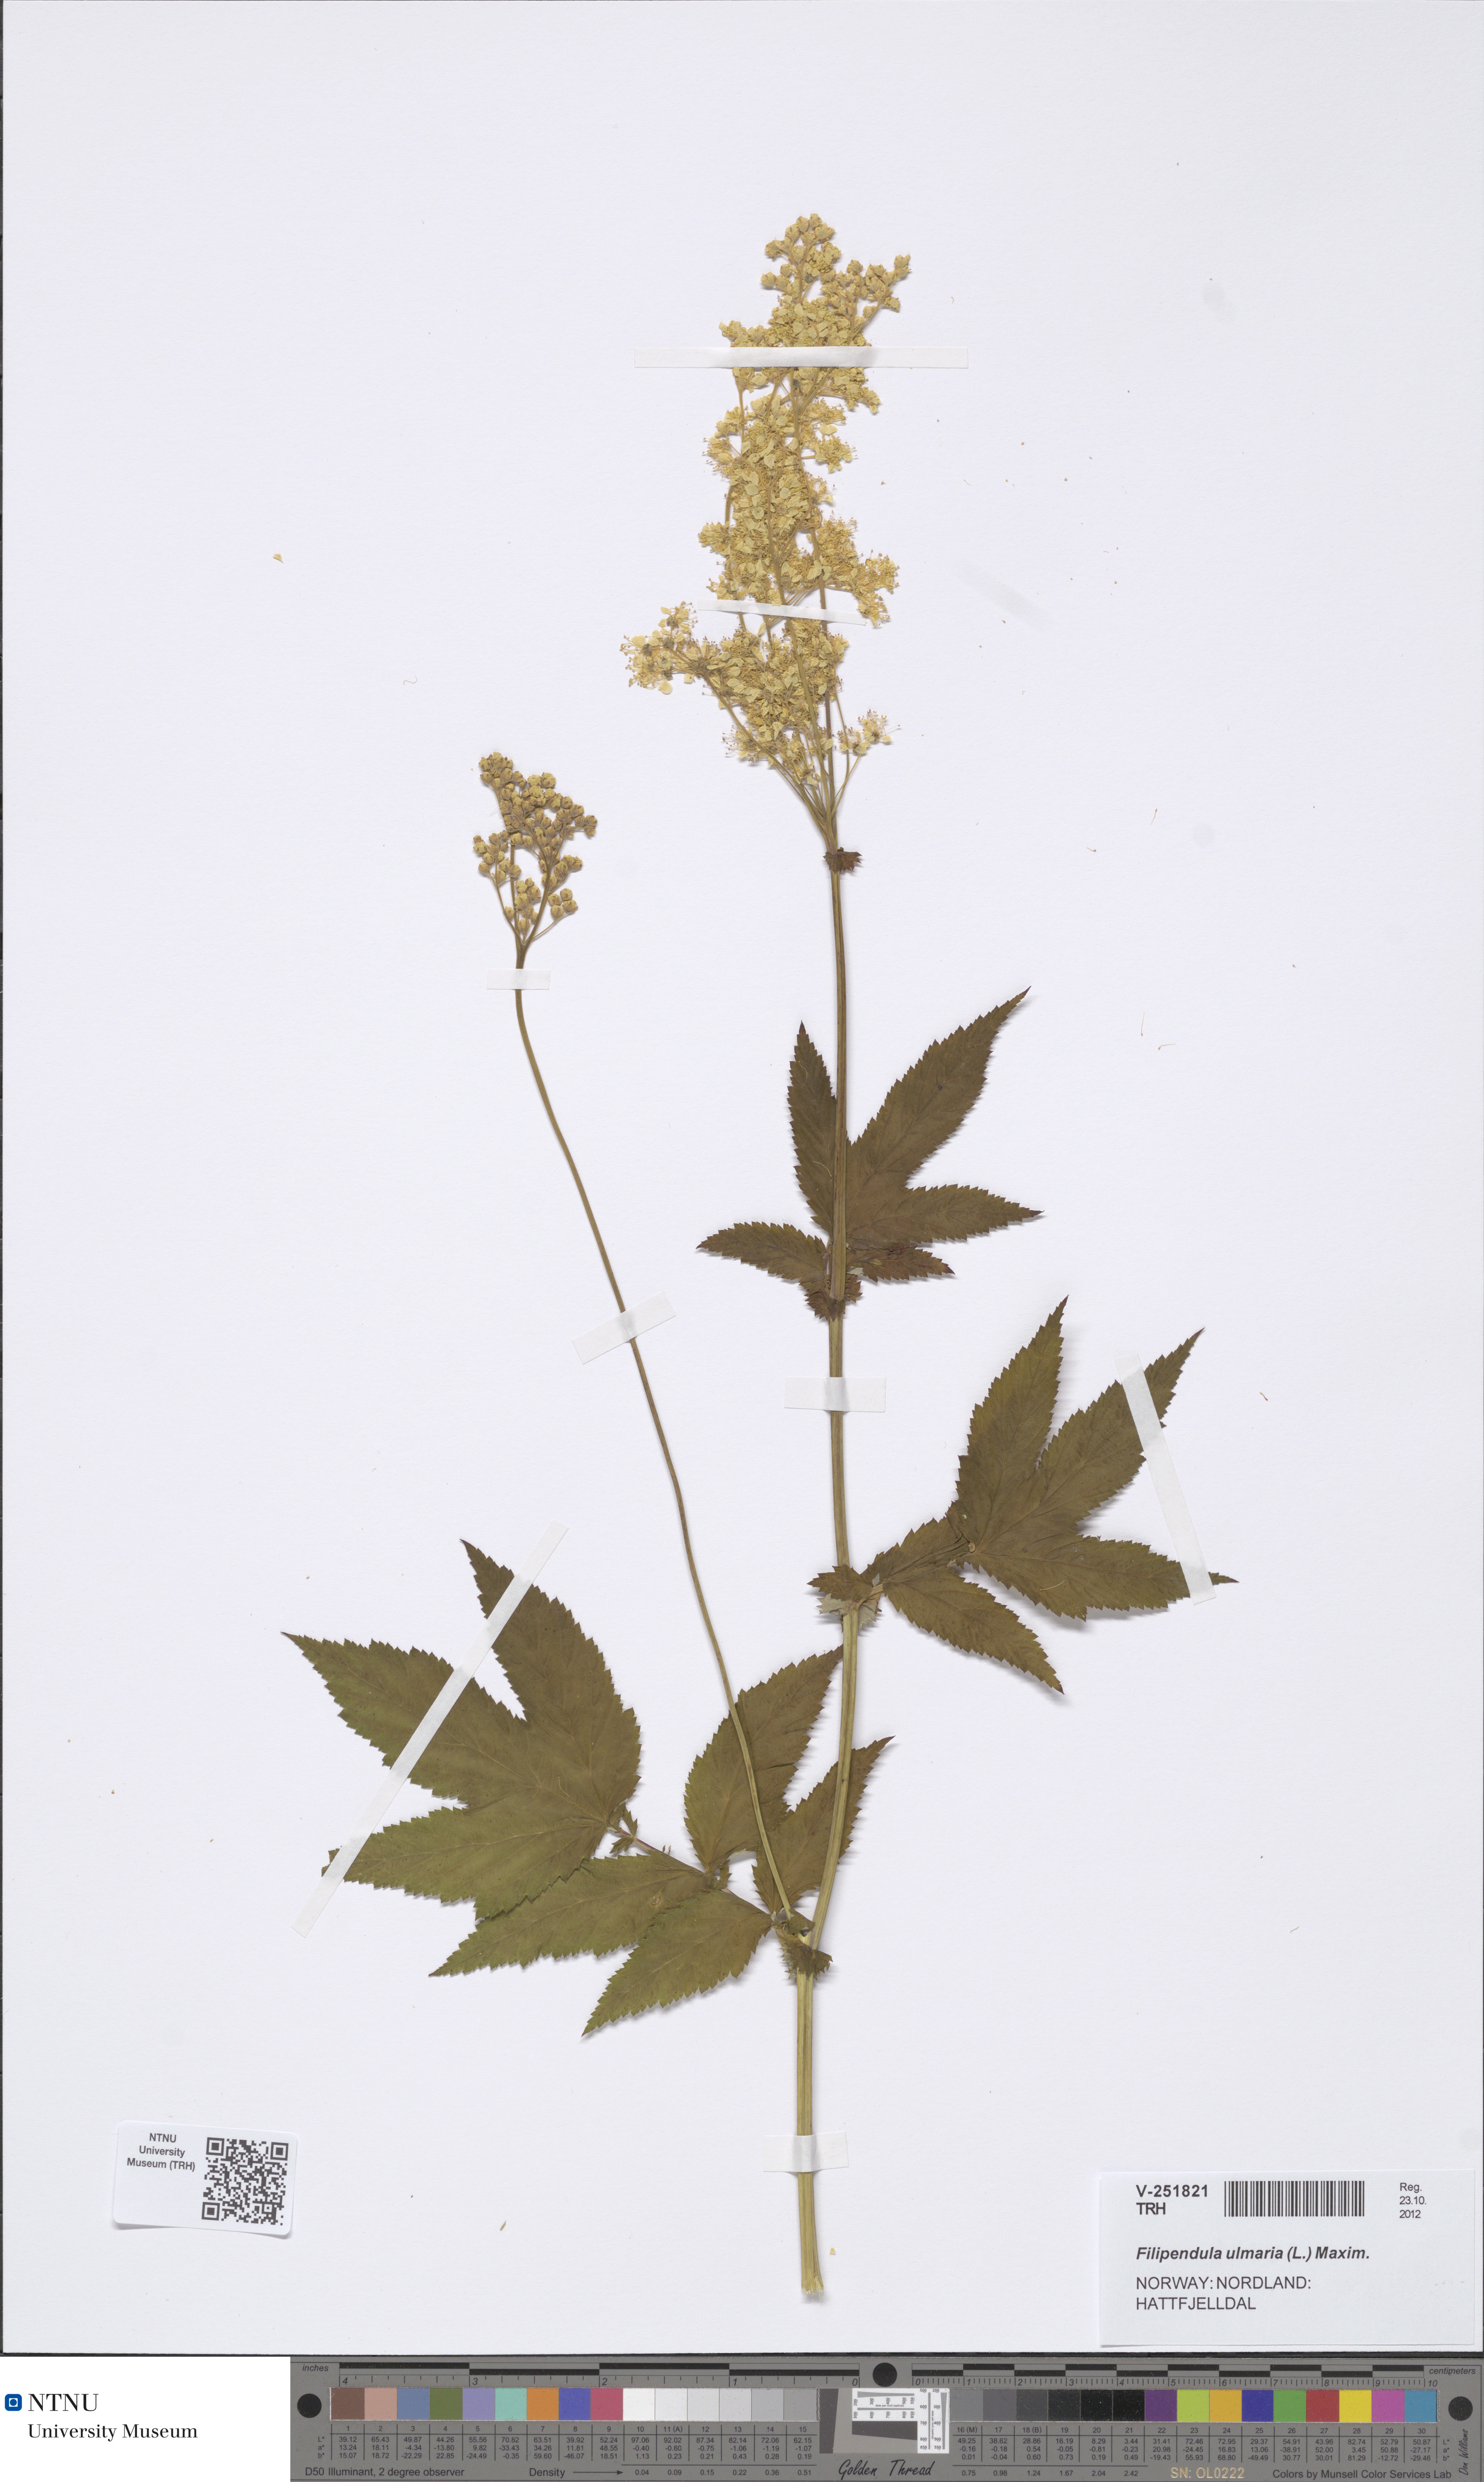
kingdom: Plantae
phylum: Tracheophyta
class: Magnoliopsida
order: Rosales
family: Rosaceae
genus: Filipendula
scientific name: Filipendula ulmaria
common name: Meadowsweet
